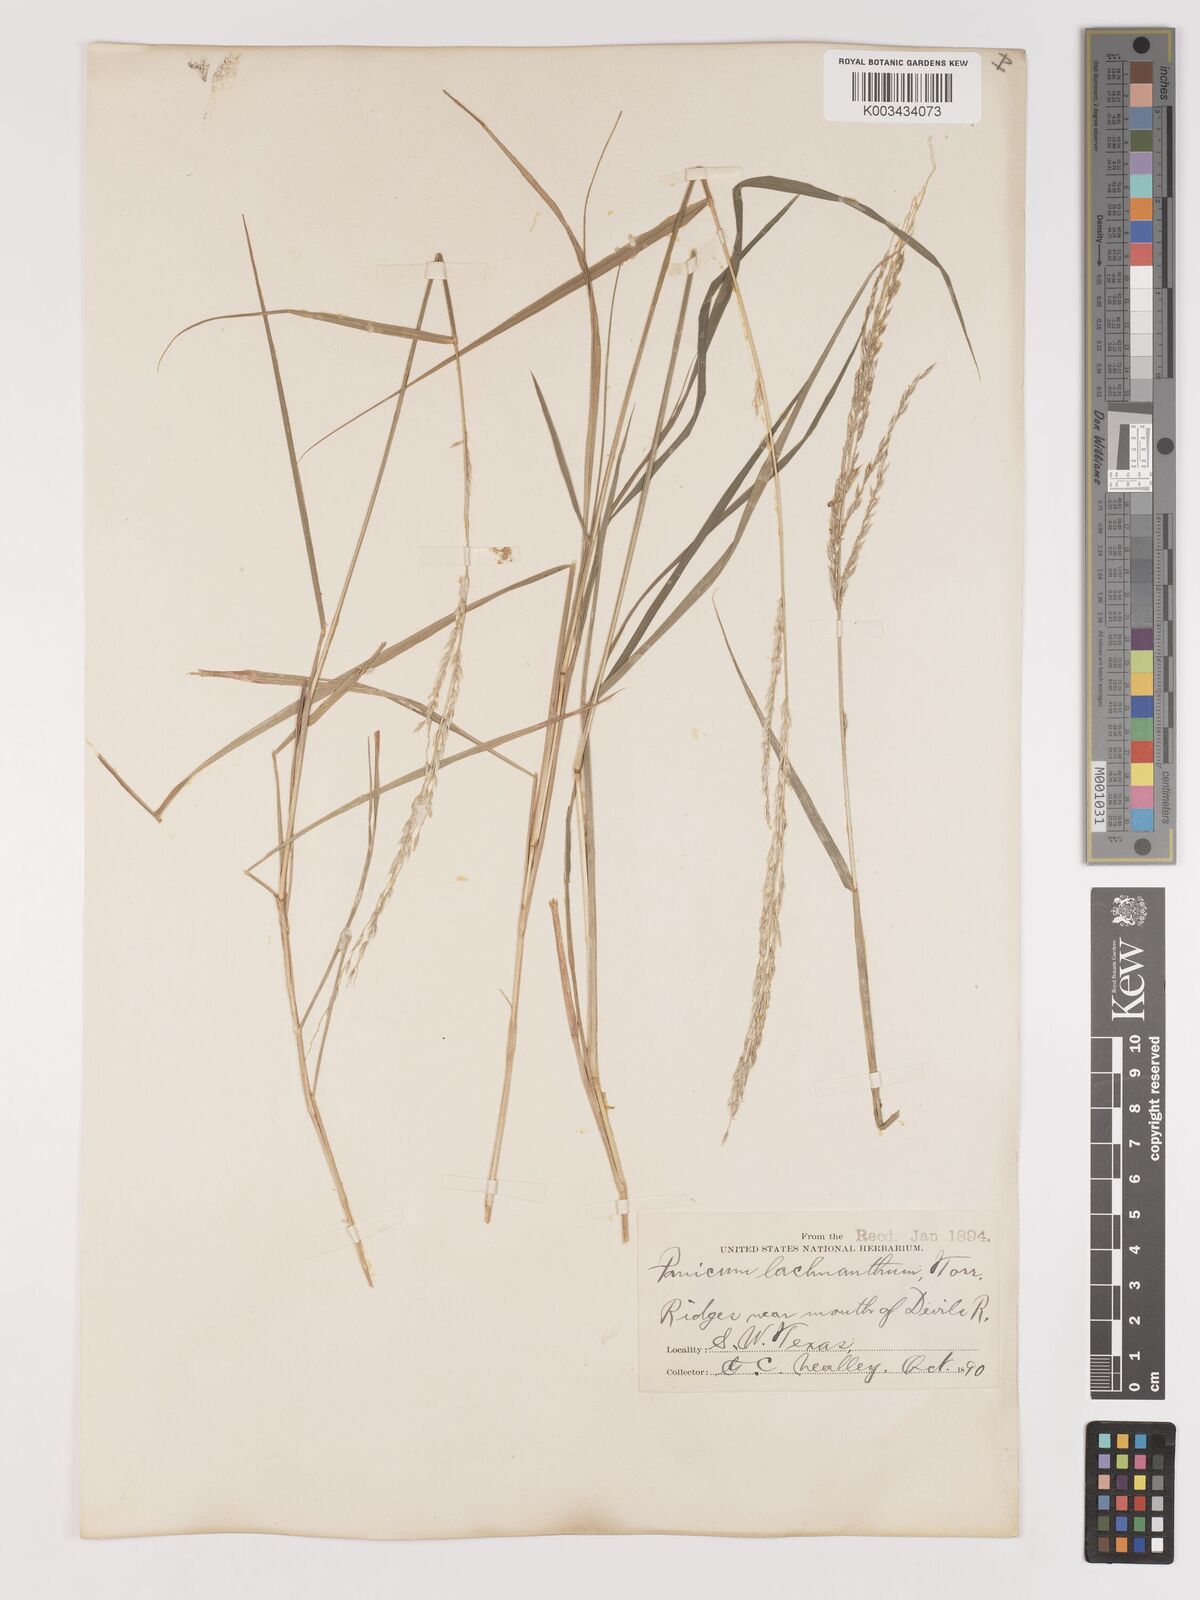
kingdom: Plantae
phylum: Tracheophyta
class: Liliopsida
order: Poales
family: Poaceae
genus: Digitaria
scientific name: Digitaria californica
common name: Arizona cottontop
